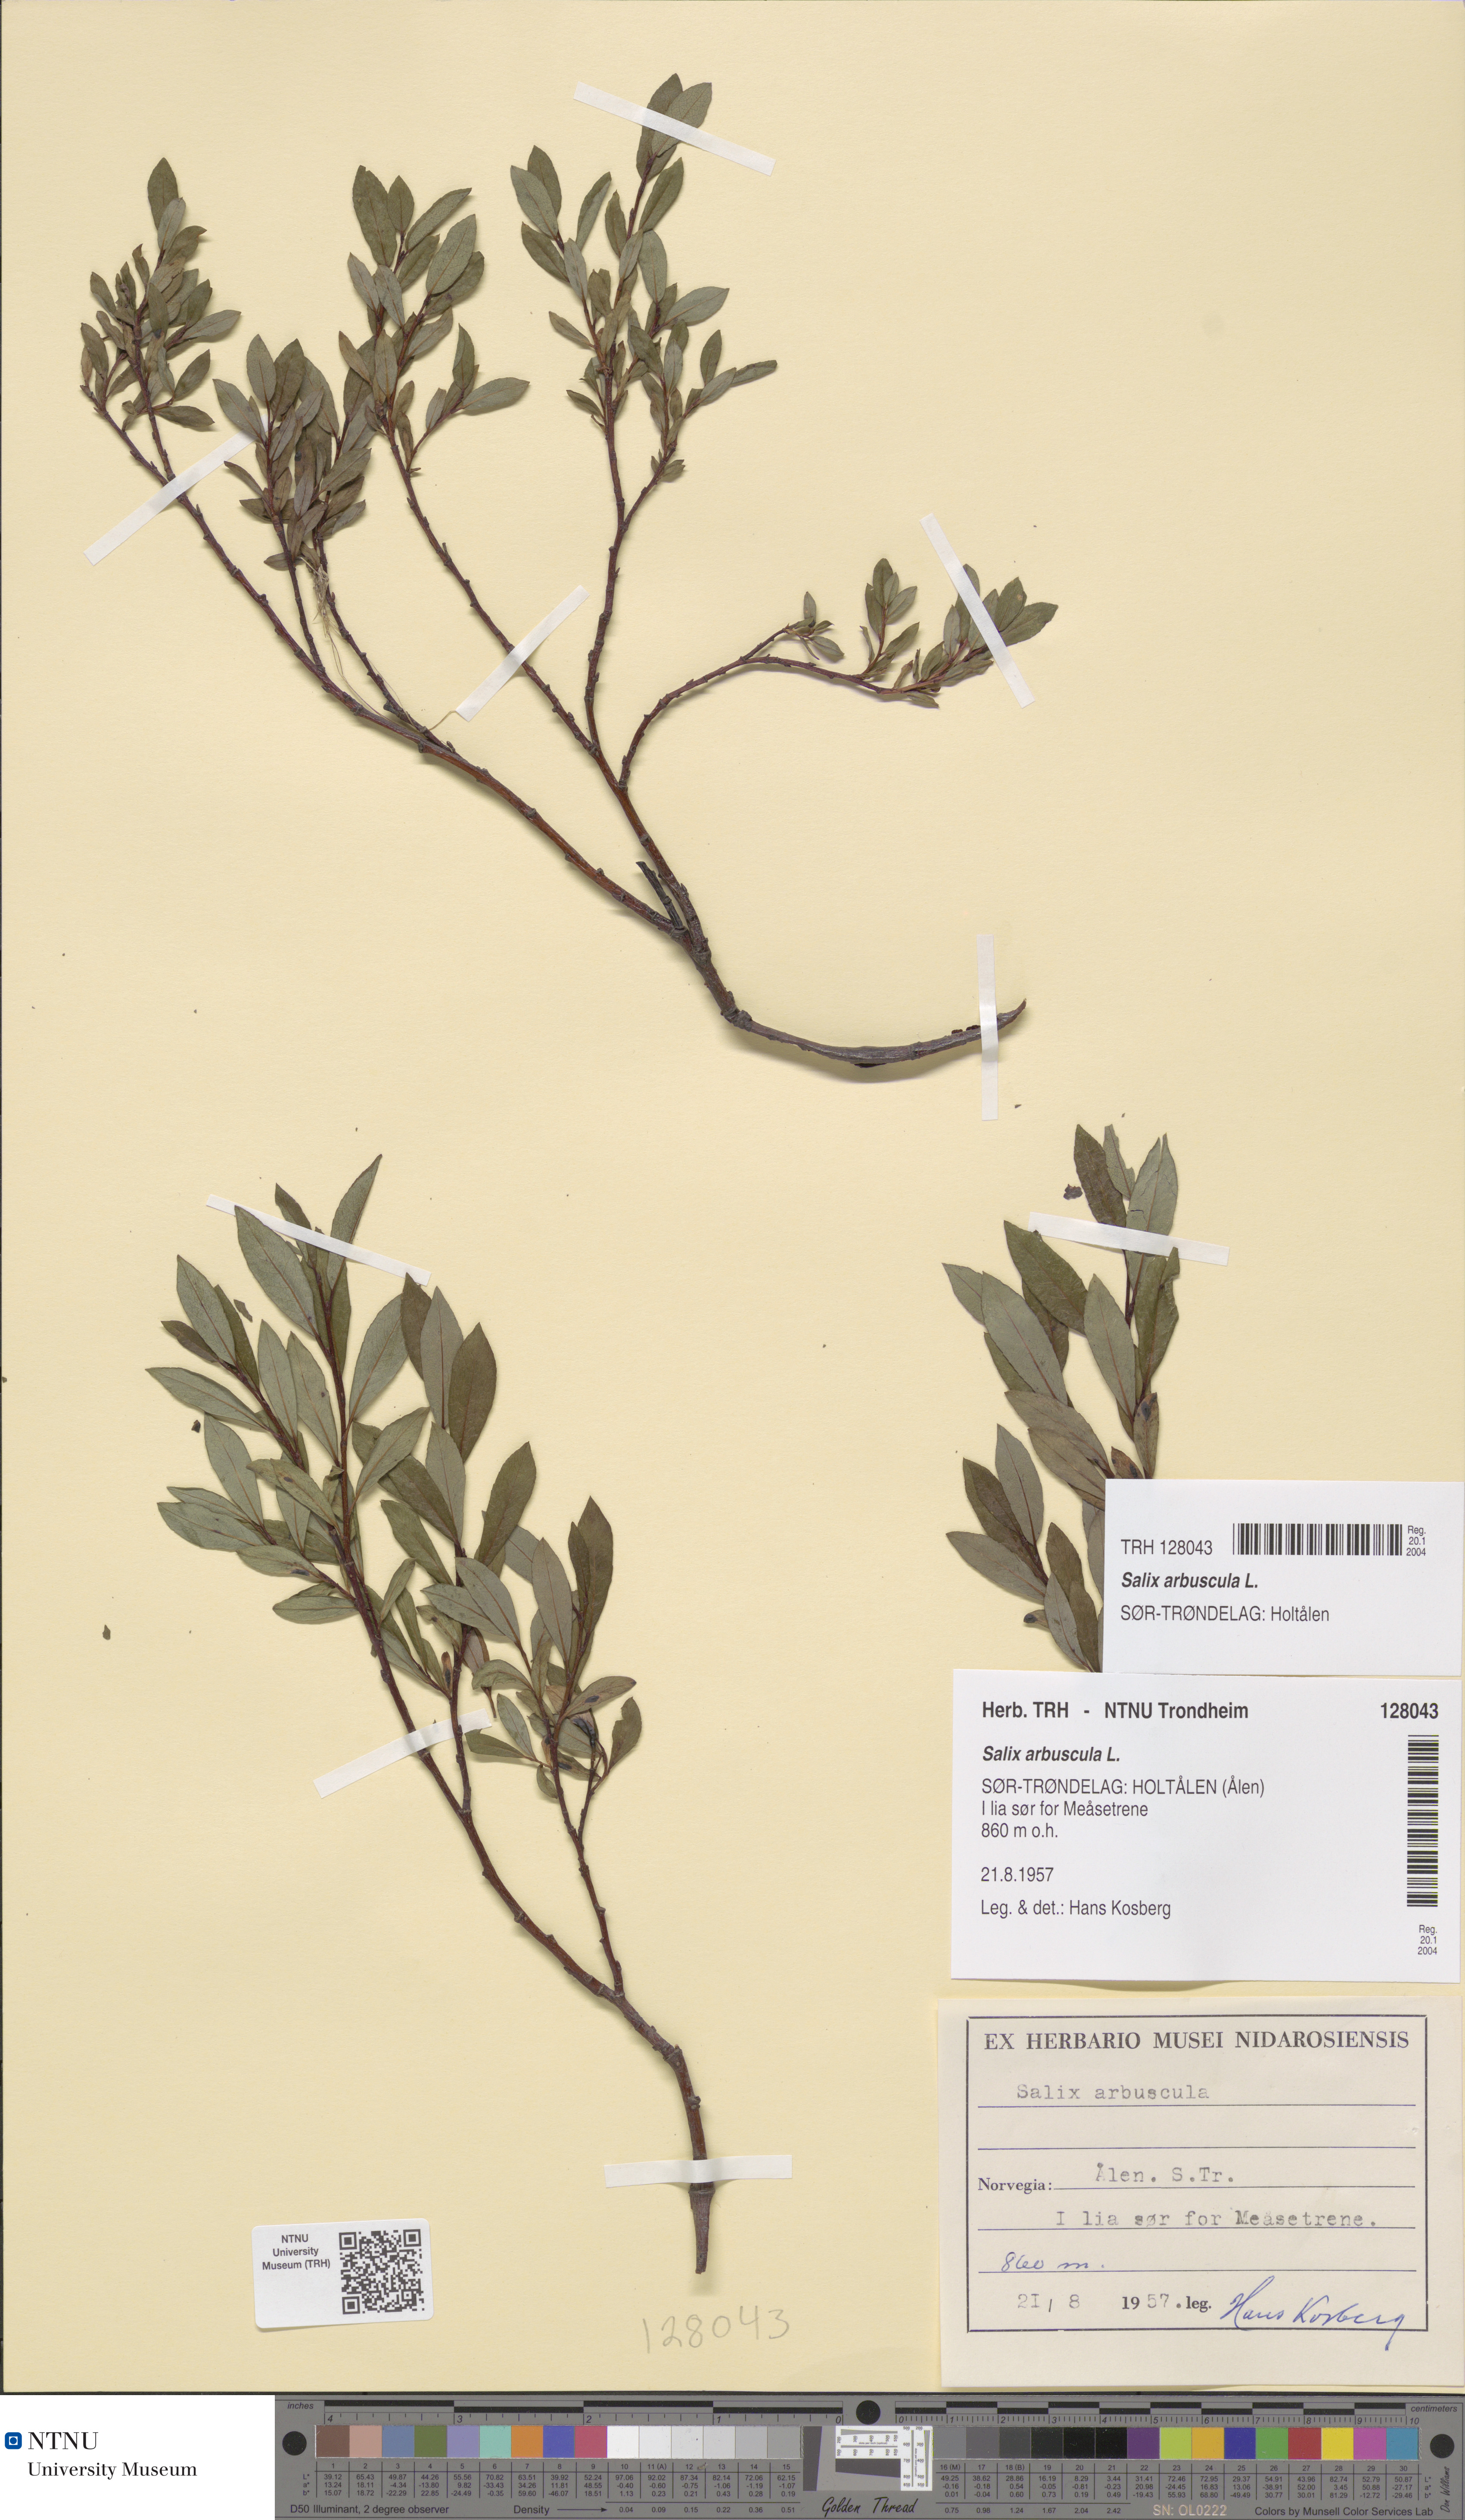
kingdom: Plantae
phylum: Tracheophyta
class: Magnoliopsida
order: Malpighiales
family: Salicaceae
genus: Salix
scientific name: Salix arbuscula
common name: Mountain willow
